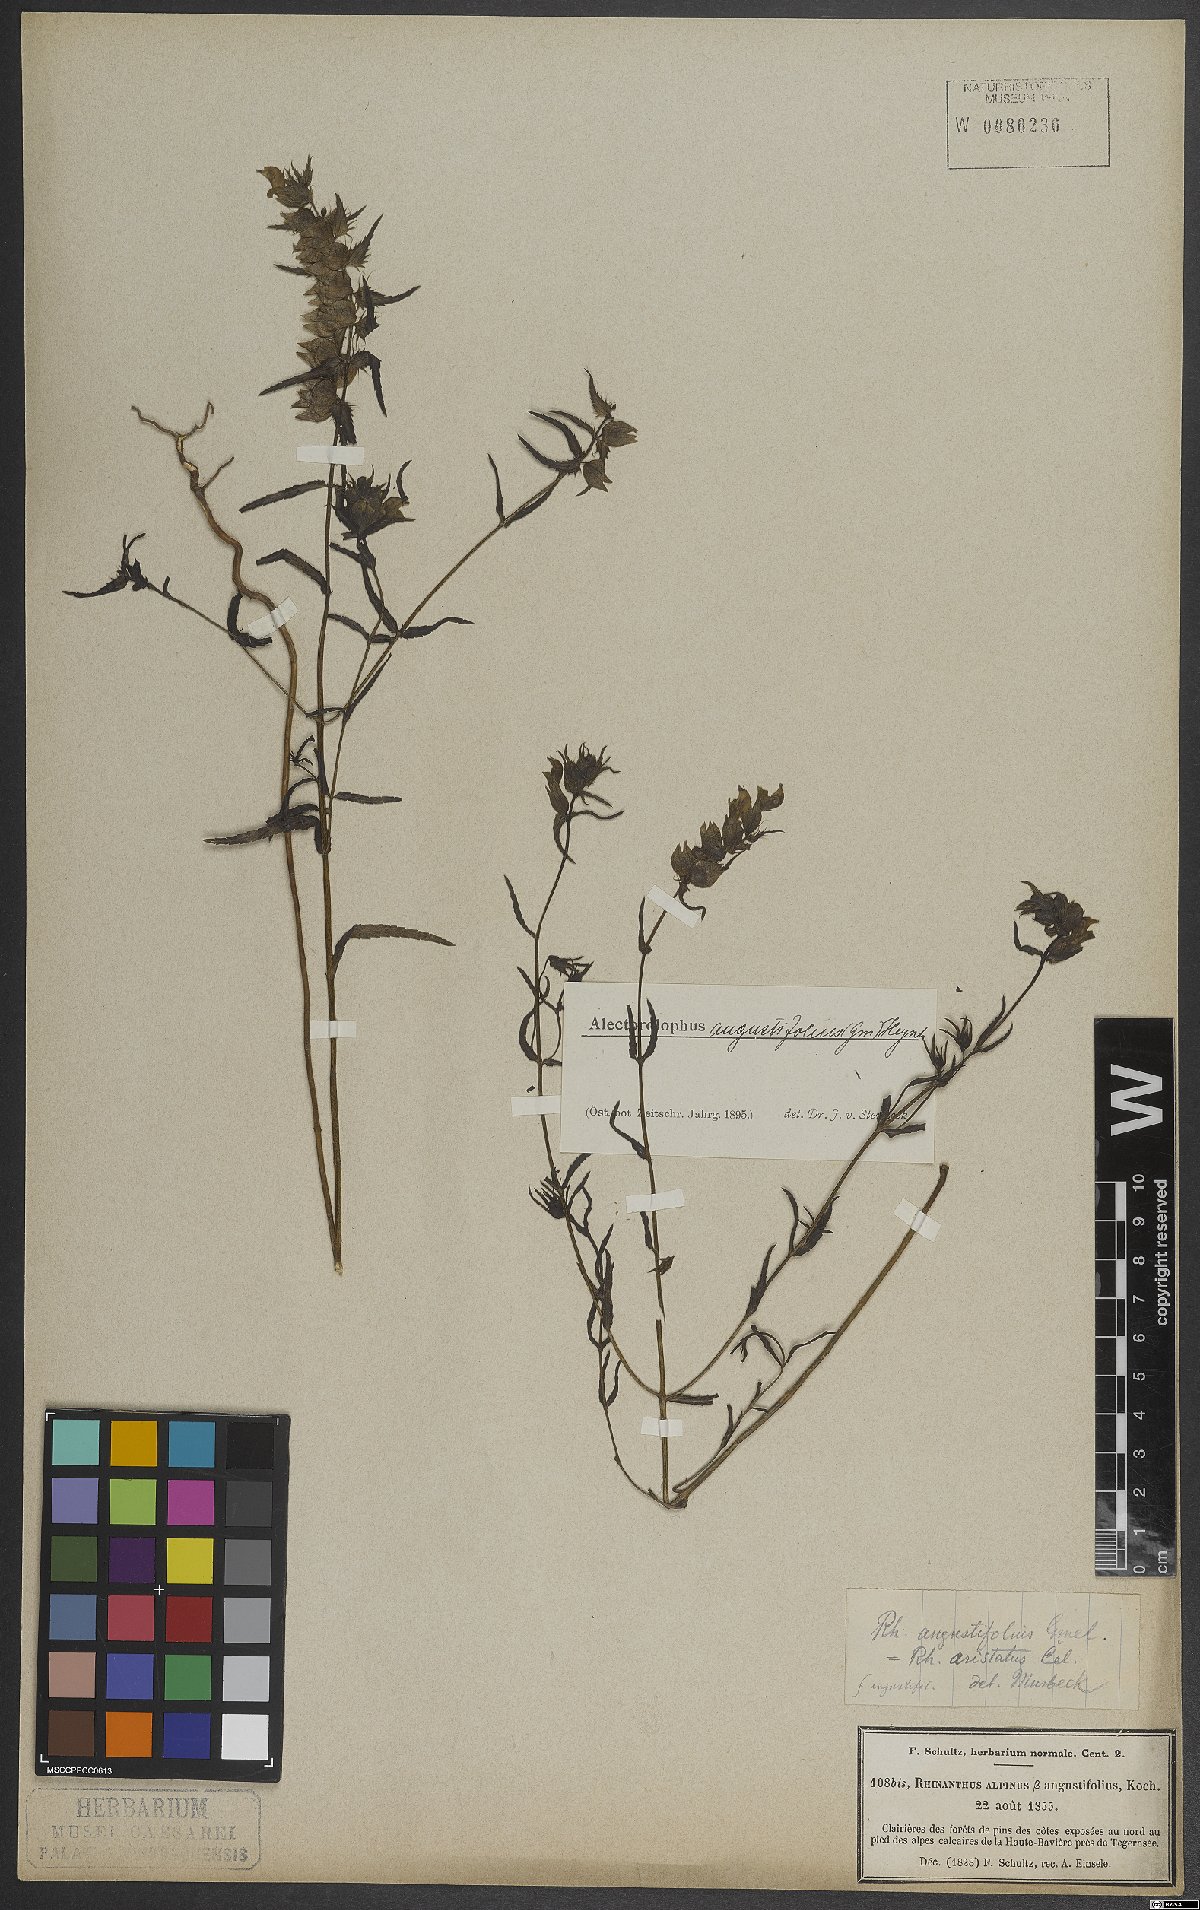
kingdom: Plantae
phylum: Tracheophyta
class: Magnoliopsida
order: Lamiales
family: Orobanchaceae
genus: Rhinanthus
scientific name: Rhinanthus glacialis
